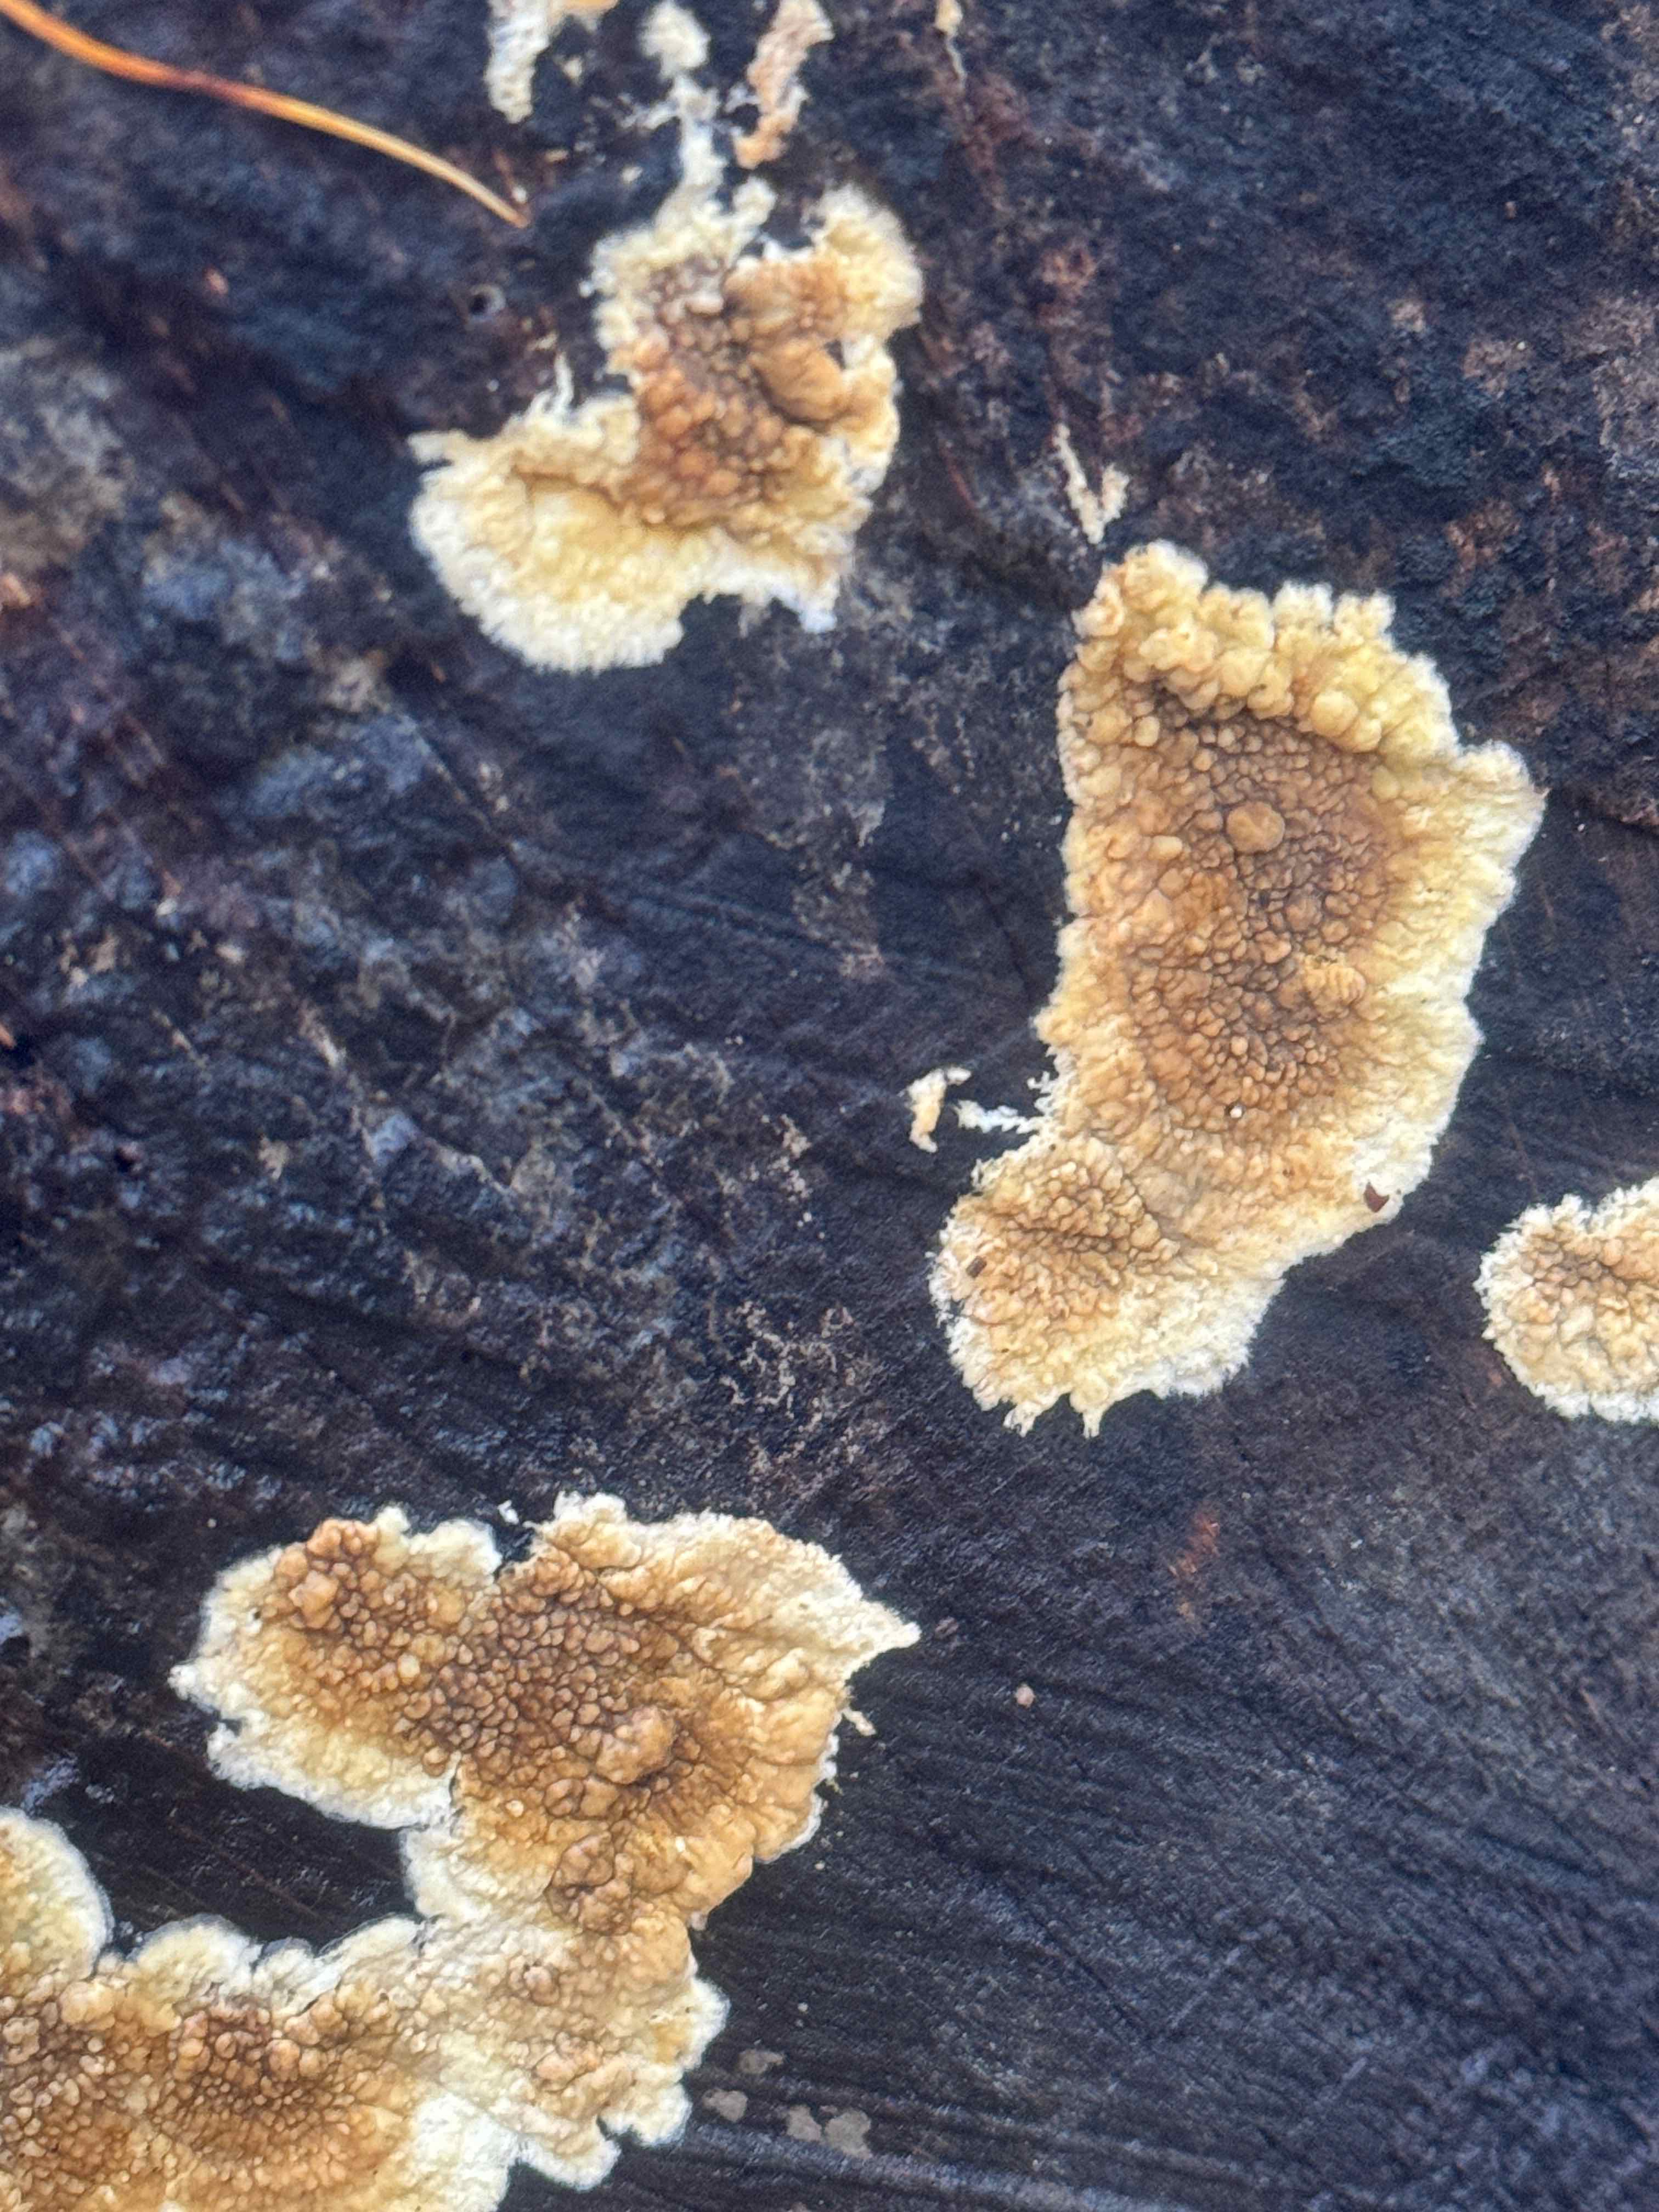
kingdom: Fungi
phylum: Basidiomycota
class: Agaricomycetes
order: Boletales
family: Coniophoraceae
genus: Coniophora
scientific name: Coniophora puteana
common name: gul tømmersvamp
